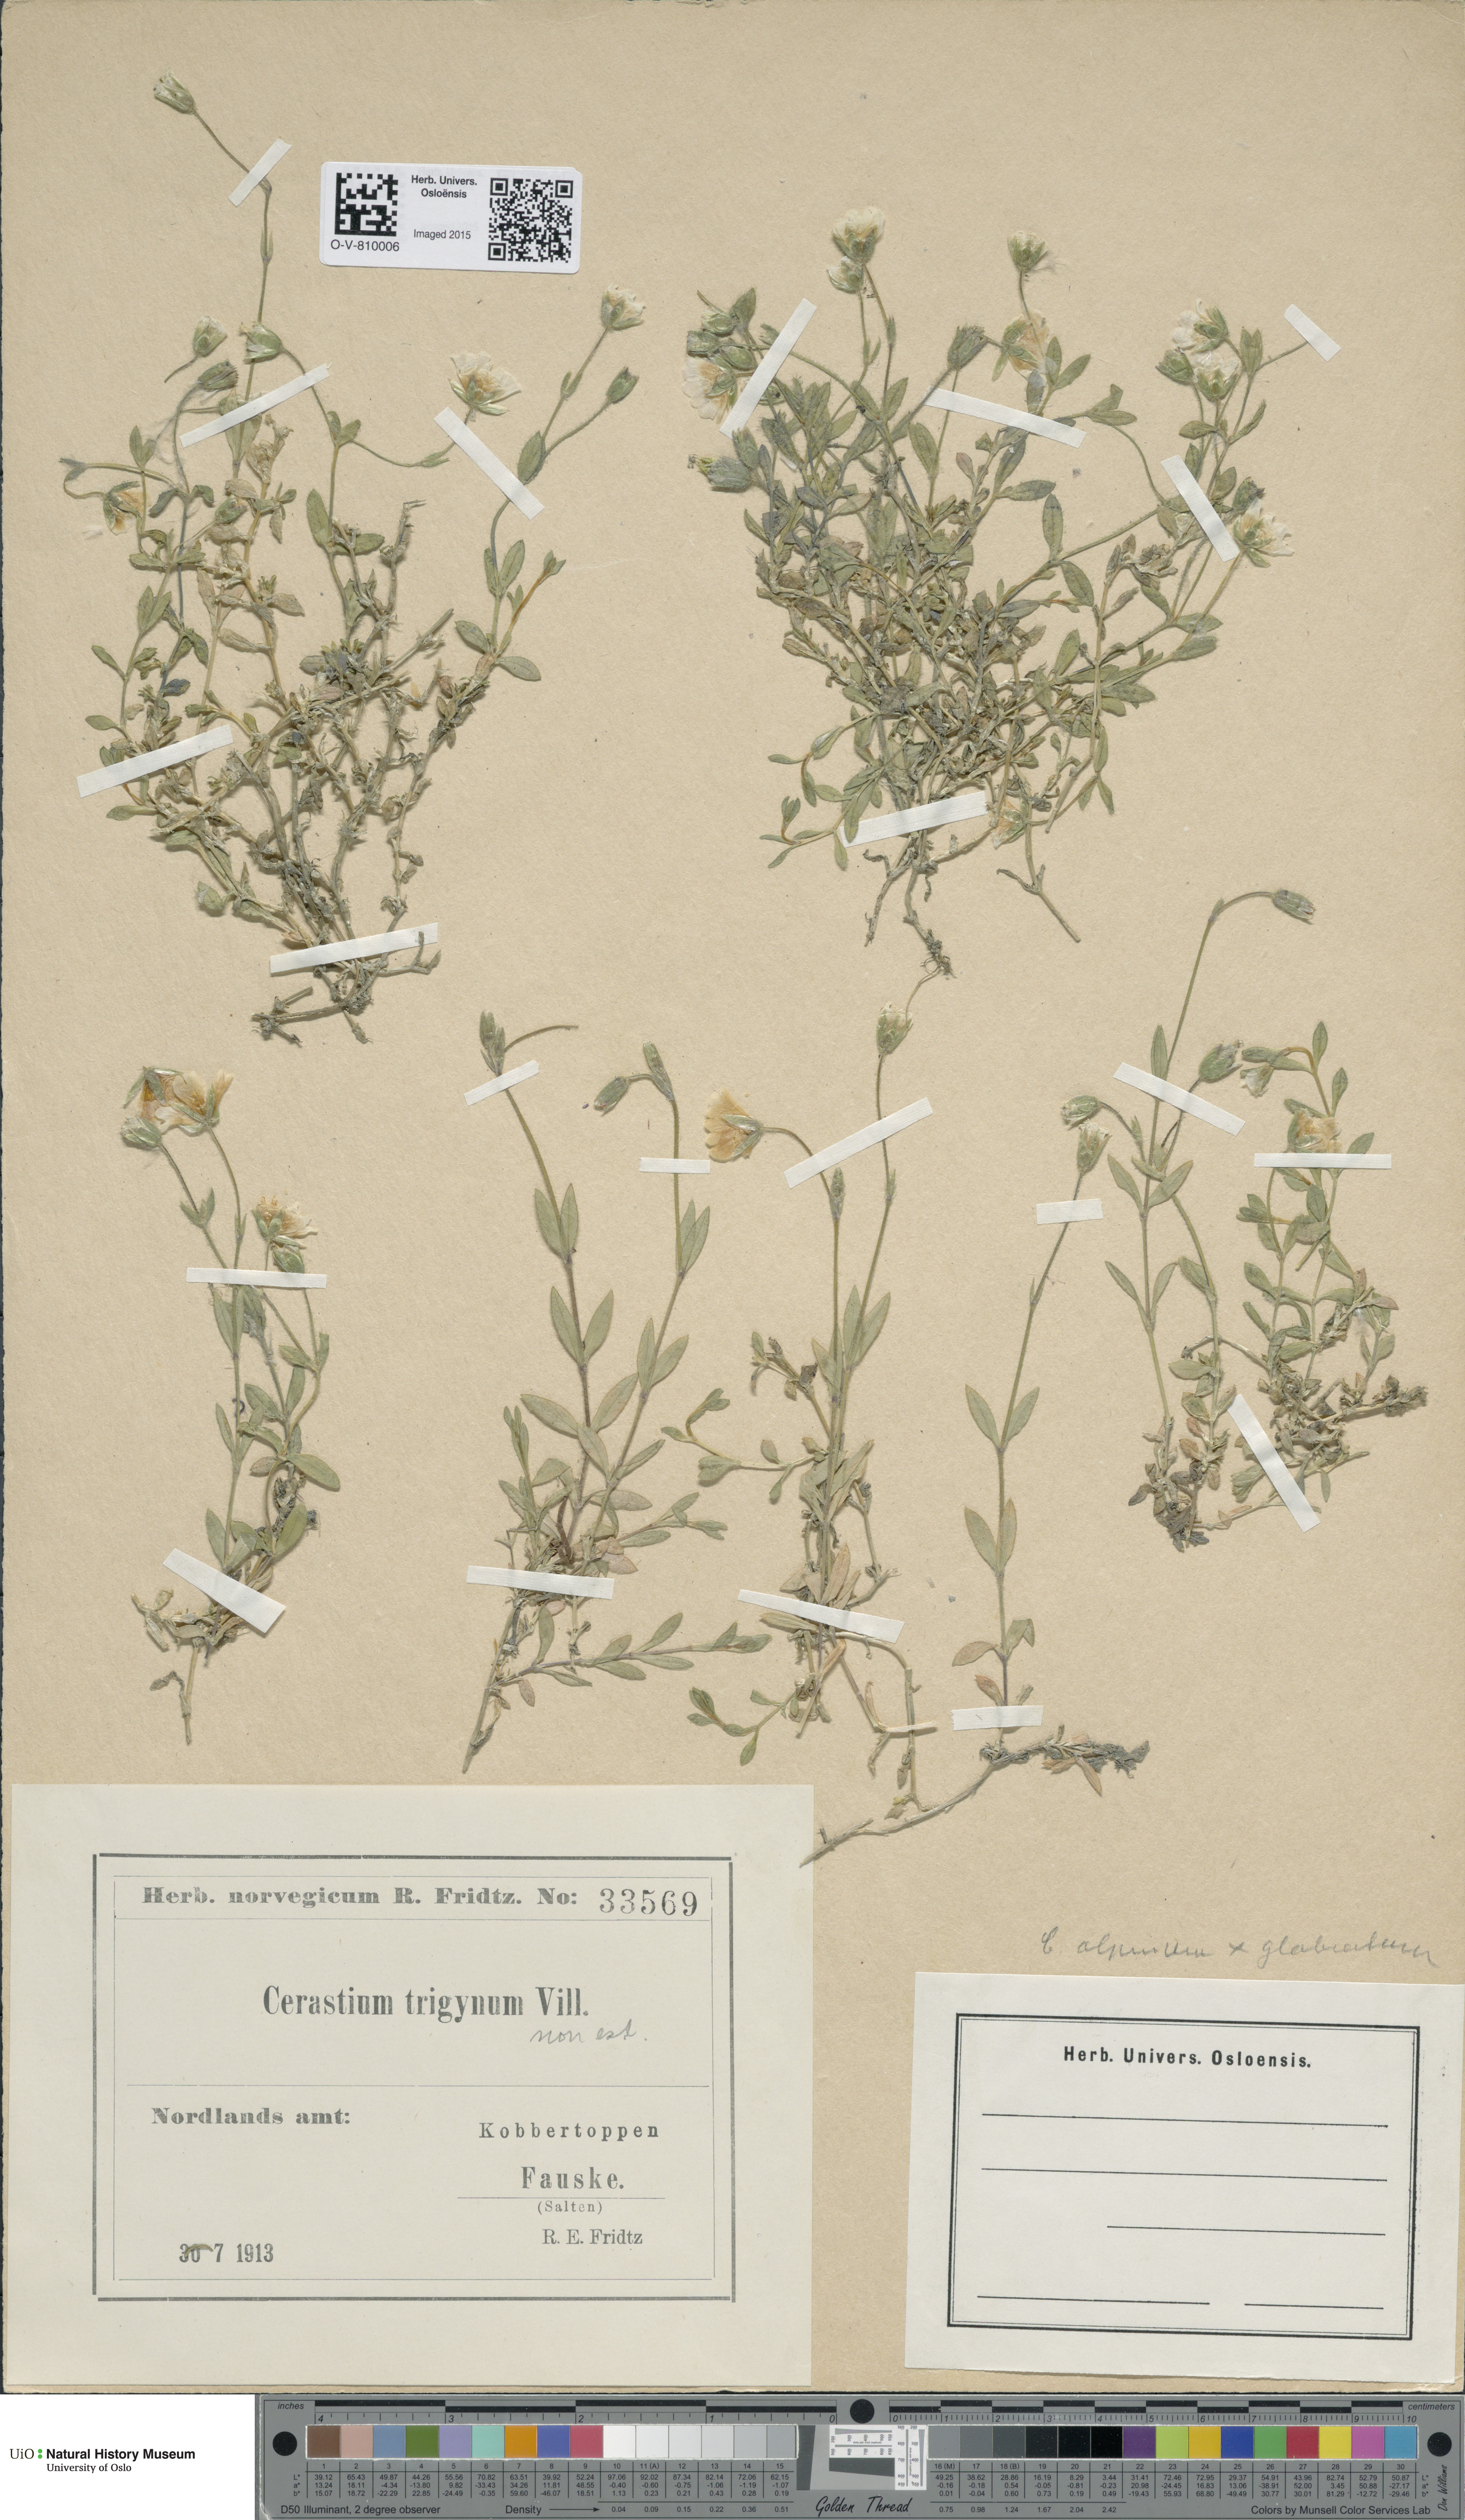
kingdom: Plantae
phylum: Tracheophyta
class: Magnoliopsida
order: Caryophyllales
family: Caryophyllaceae
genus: Cerastium
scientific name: Cerastium
